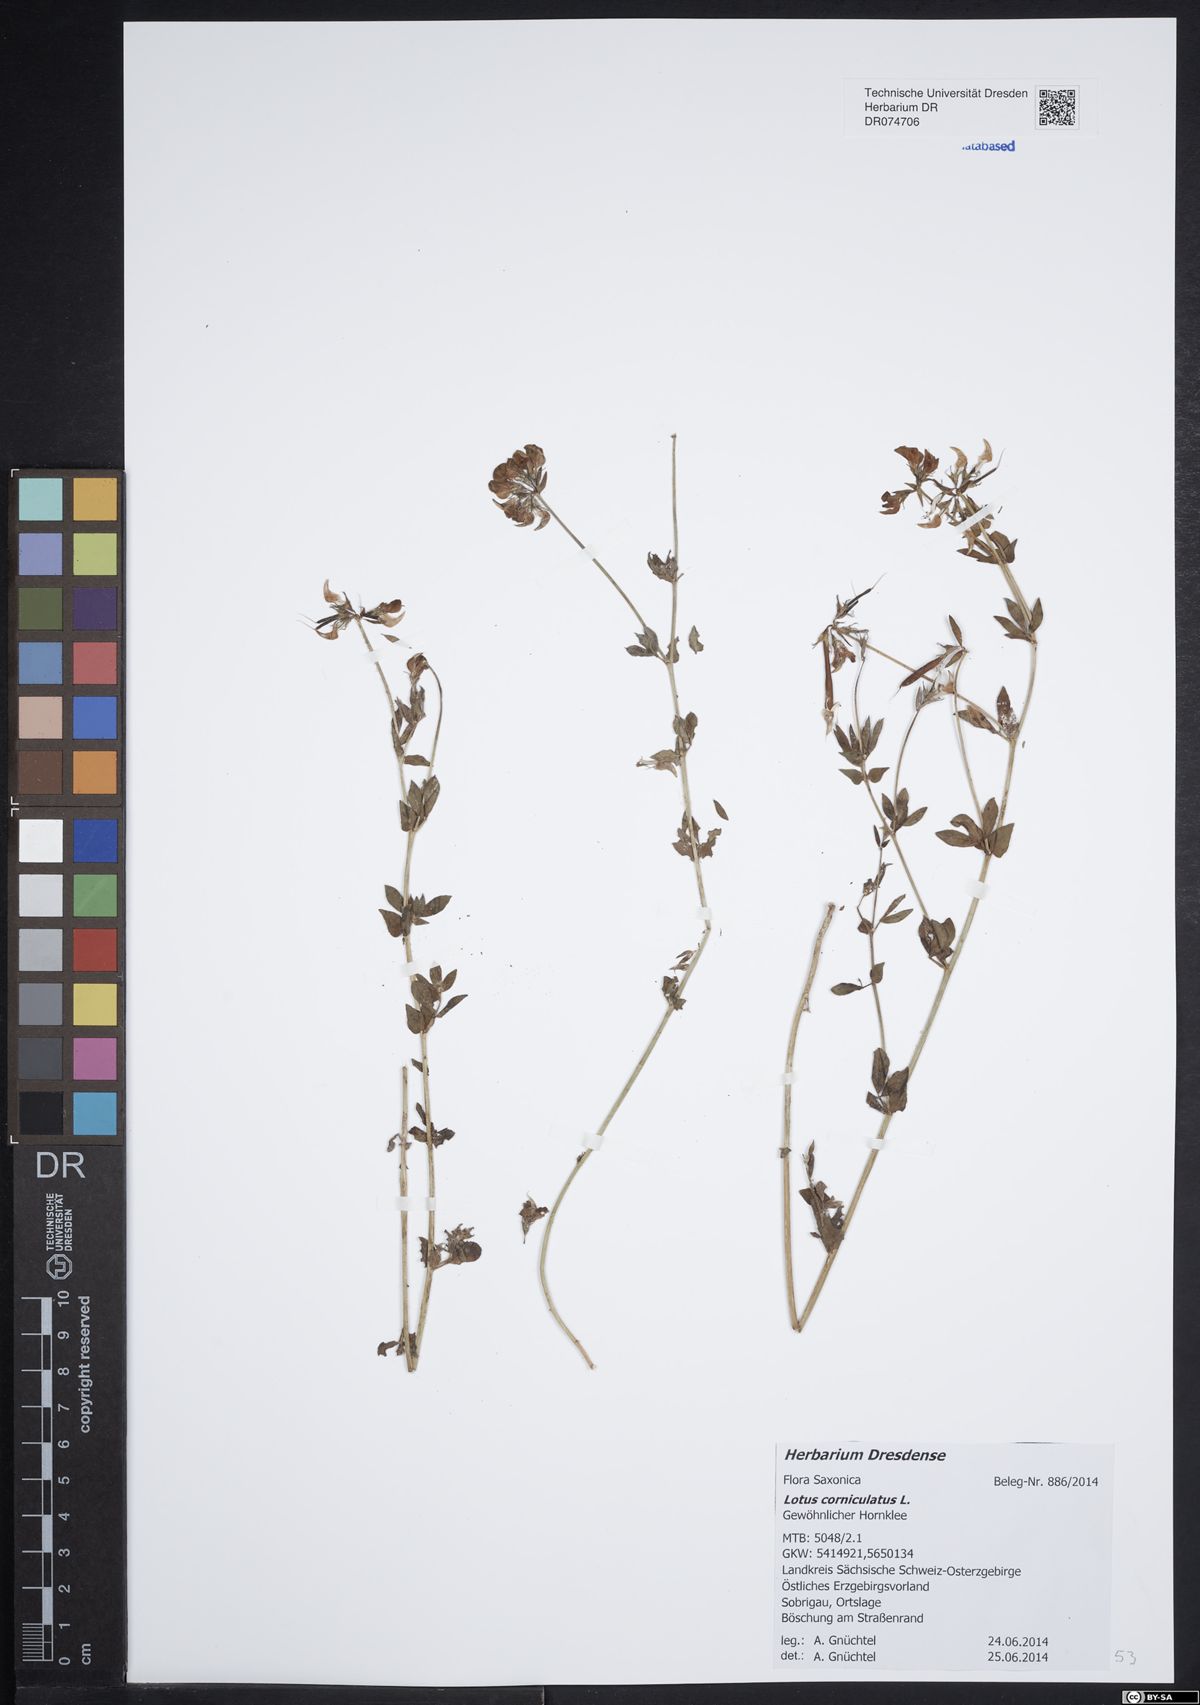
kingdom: Plantae
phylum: Tracheophyta
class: Magnoliopsida
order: Fabales
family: Fabaceae
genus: Lotus
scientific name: Lotus corniculatus
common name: Common bird's-foot-trefoil
